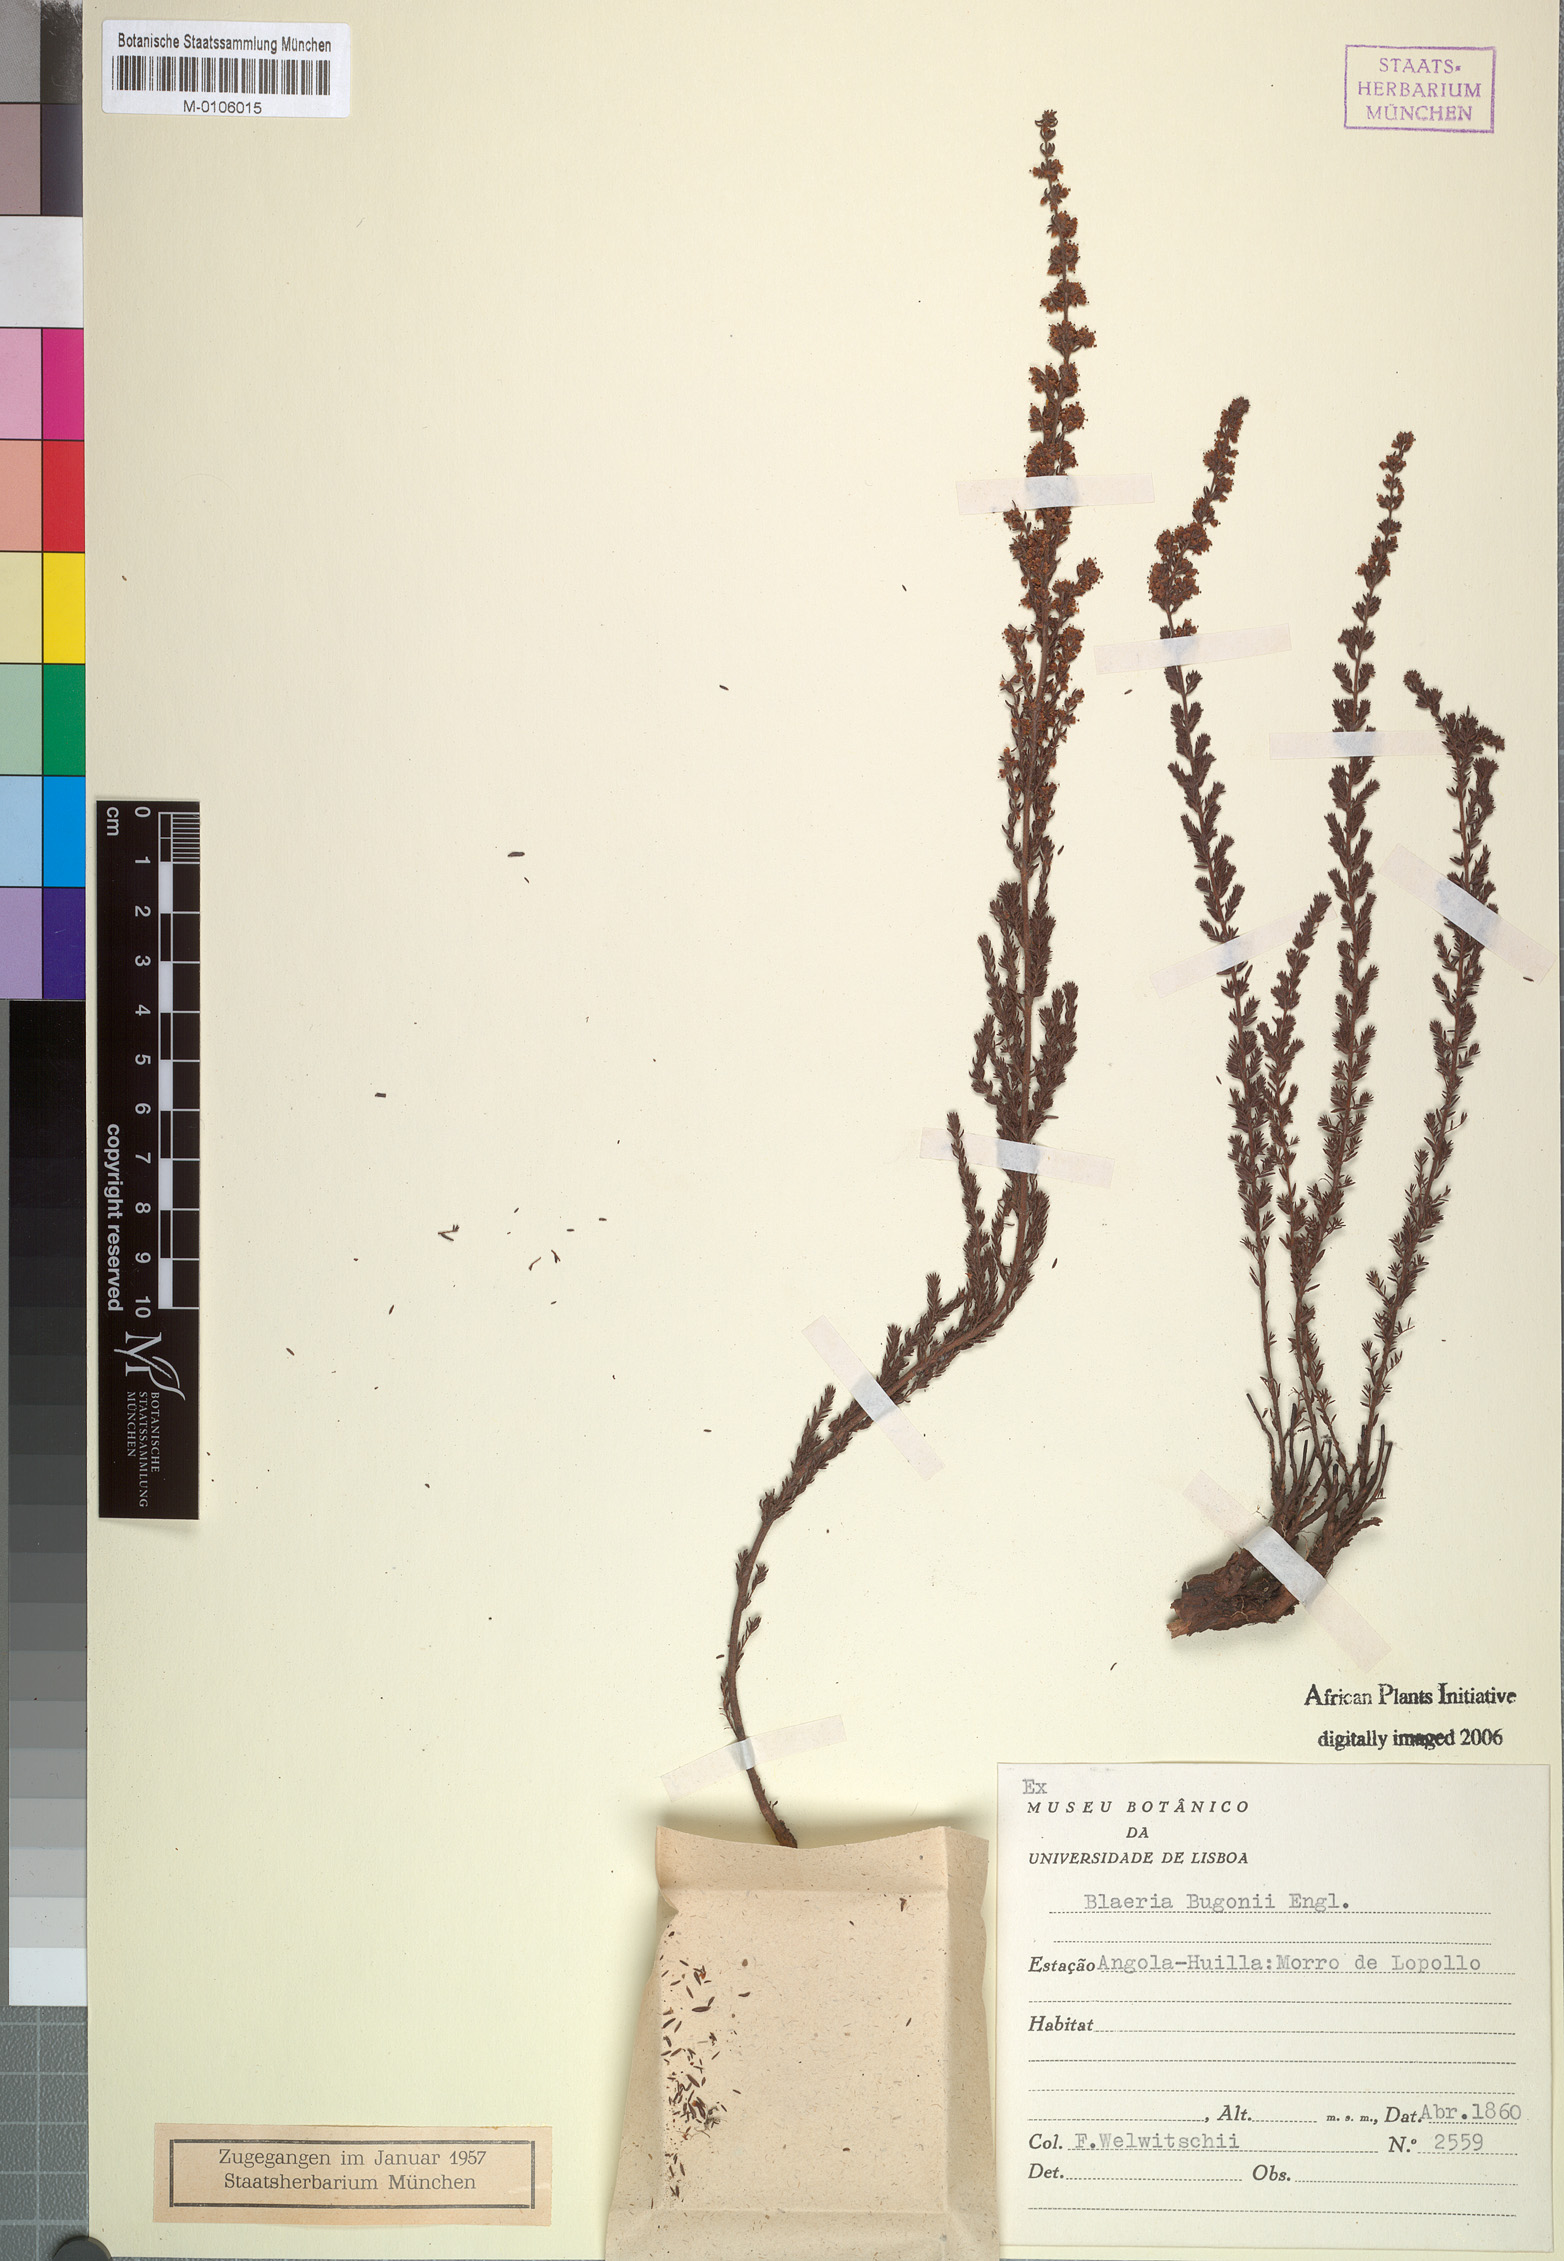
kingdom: Plantae
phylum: Tracheophyta
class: Magnoliopsida
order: Ericales
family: Ericaceae
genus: Erica
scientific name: Erica silvatica
